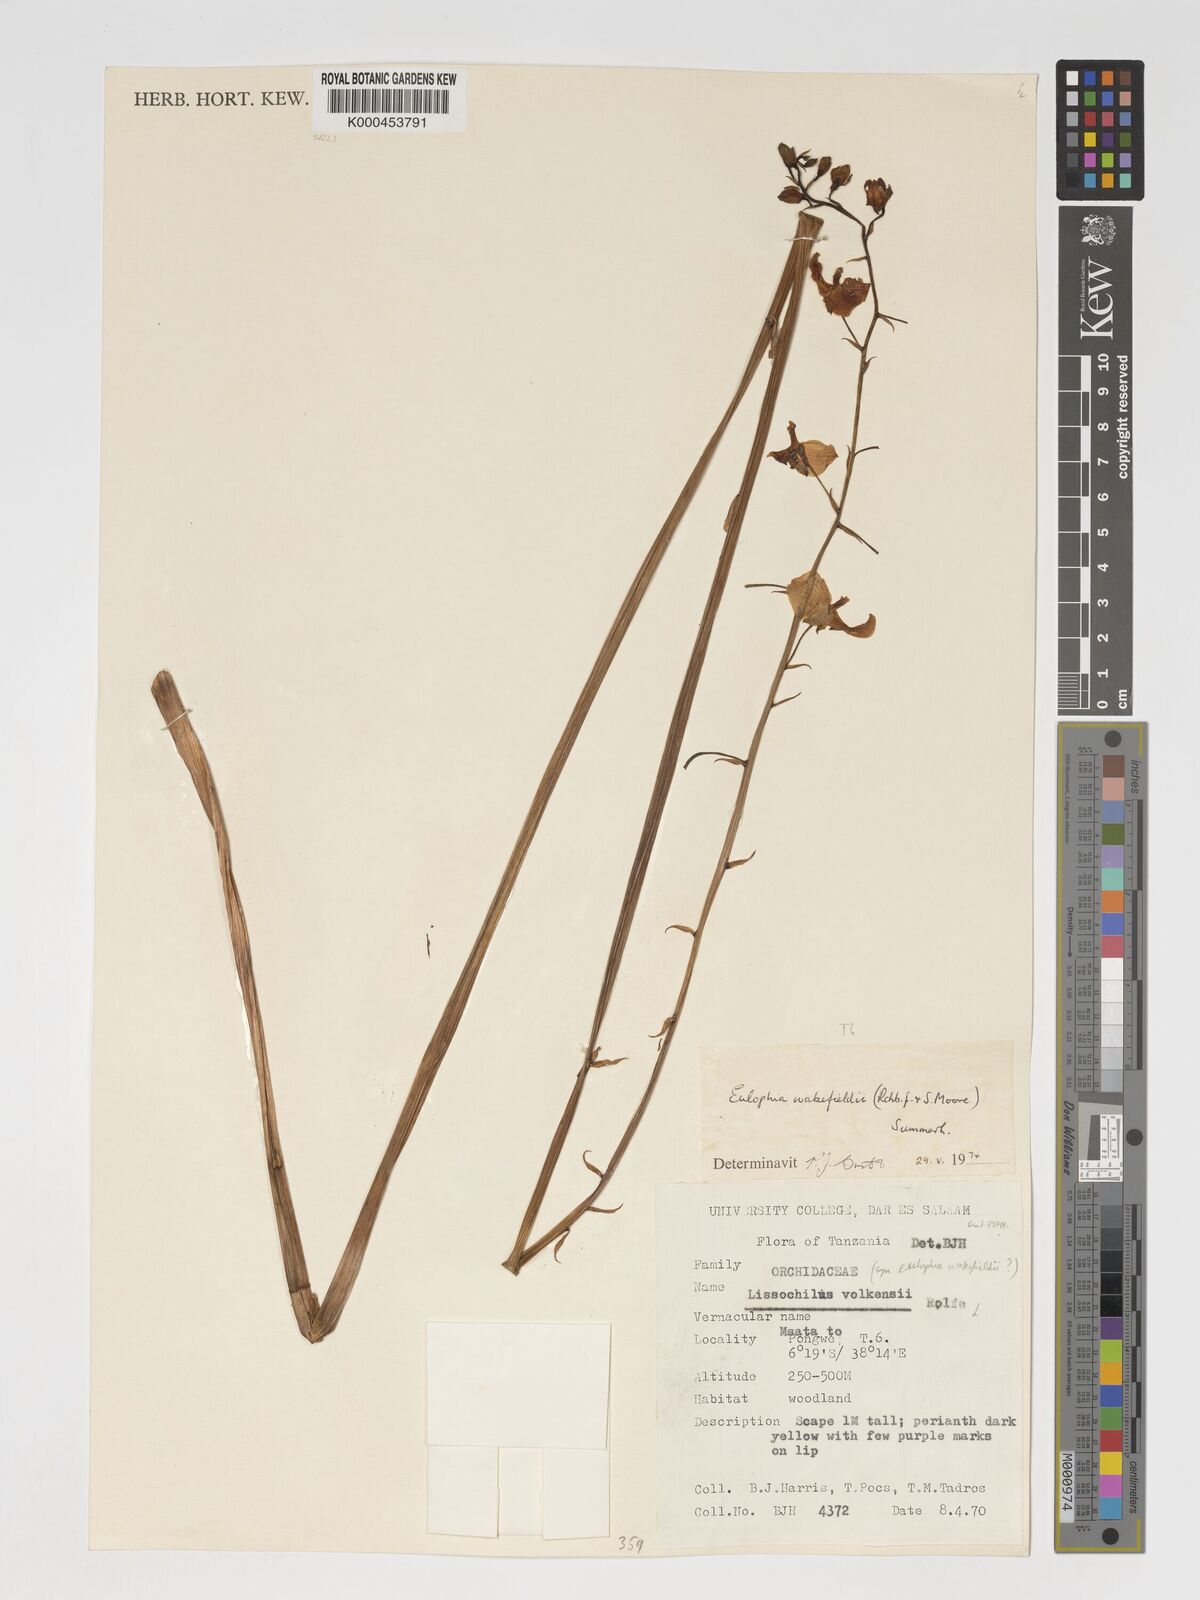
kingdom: Plantae
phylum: Tracheophyta
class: Liliopsida
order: Asparagales
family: Orchidaceae
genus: Eulophia
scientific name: Eulophia speciosa
